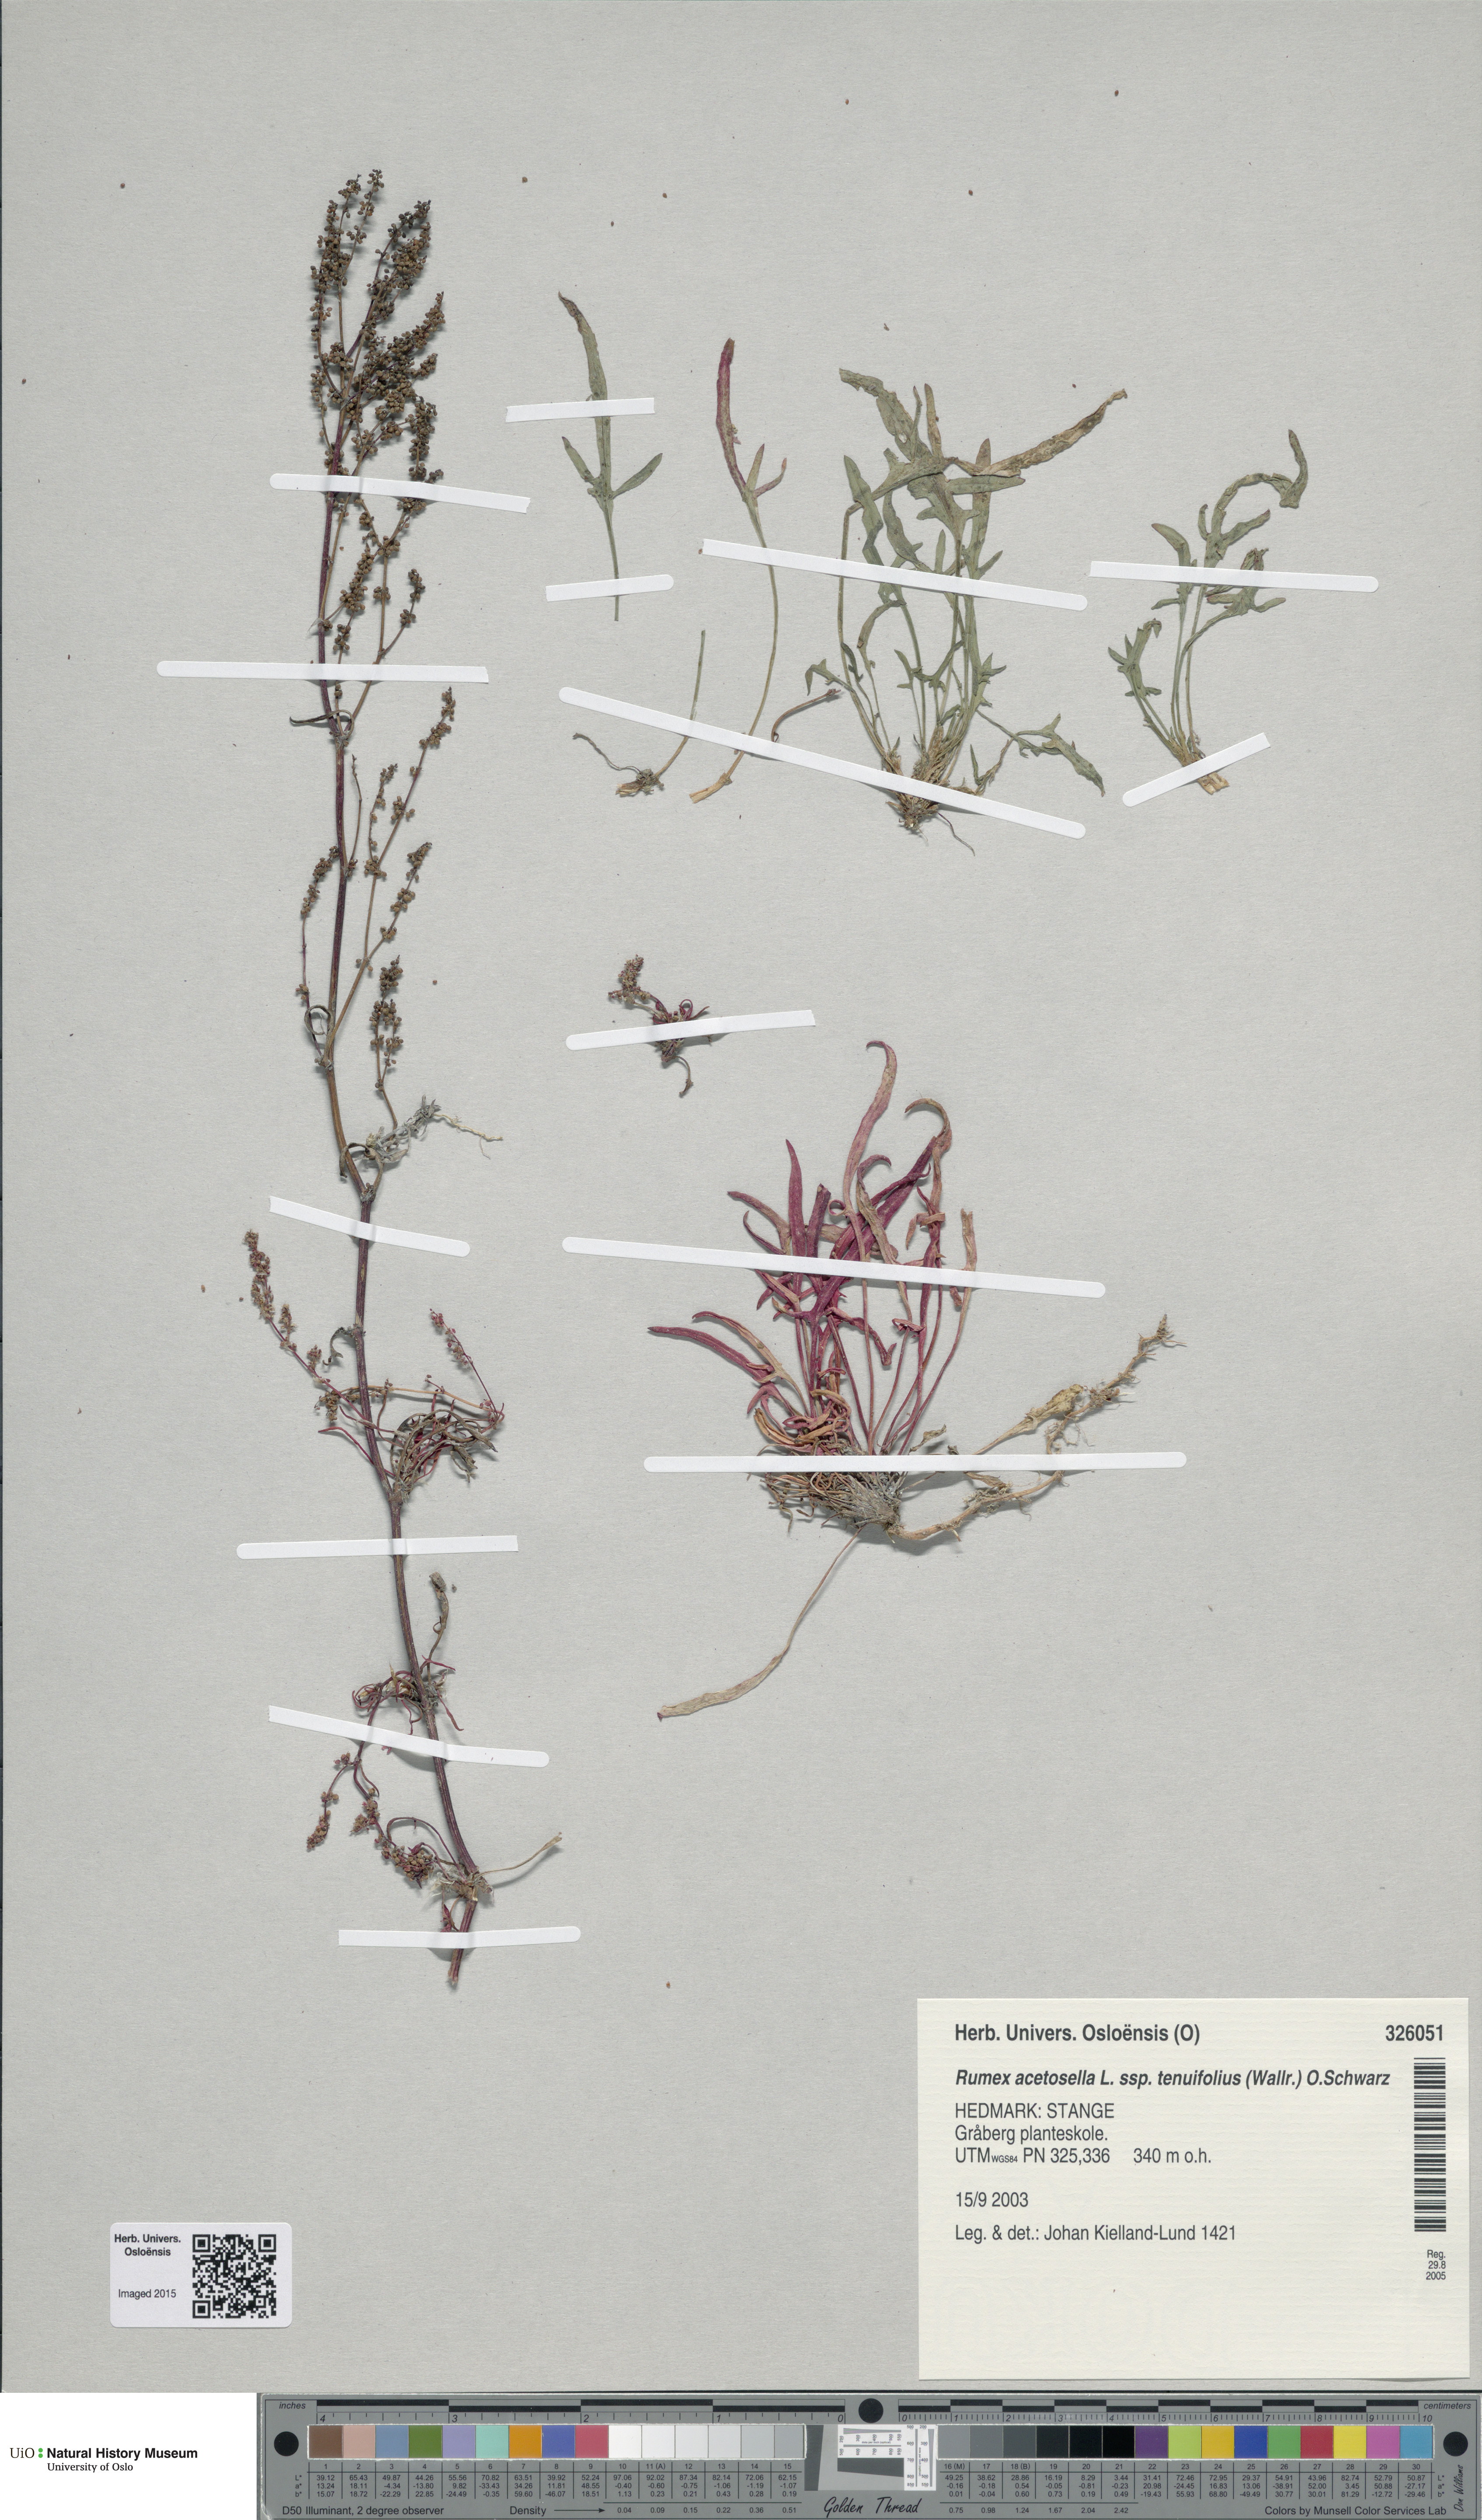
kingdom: Plantae
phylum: Tracheophyta
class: Magnoliopsida
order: Caryophyllales
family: Polygonaceae
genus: Rumex
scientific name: Rumex acetosella
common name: Common sheep sorrel
